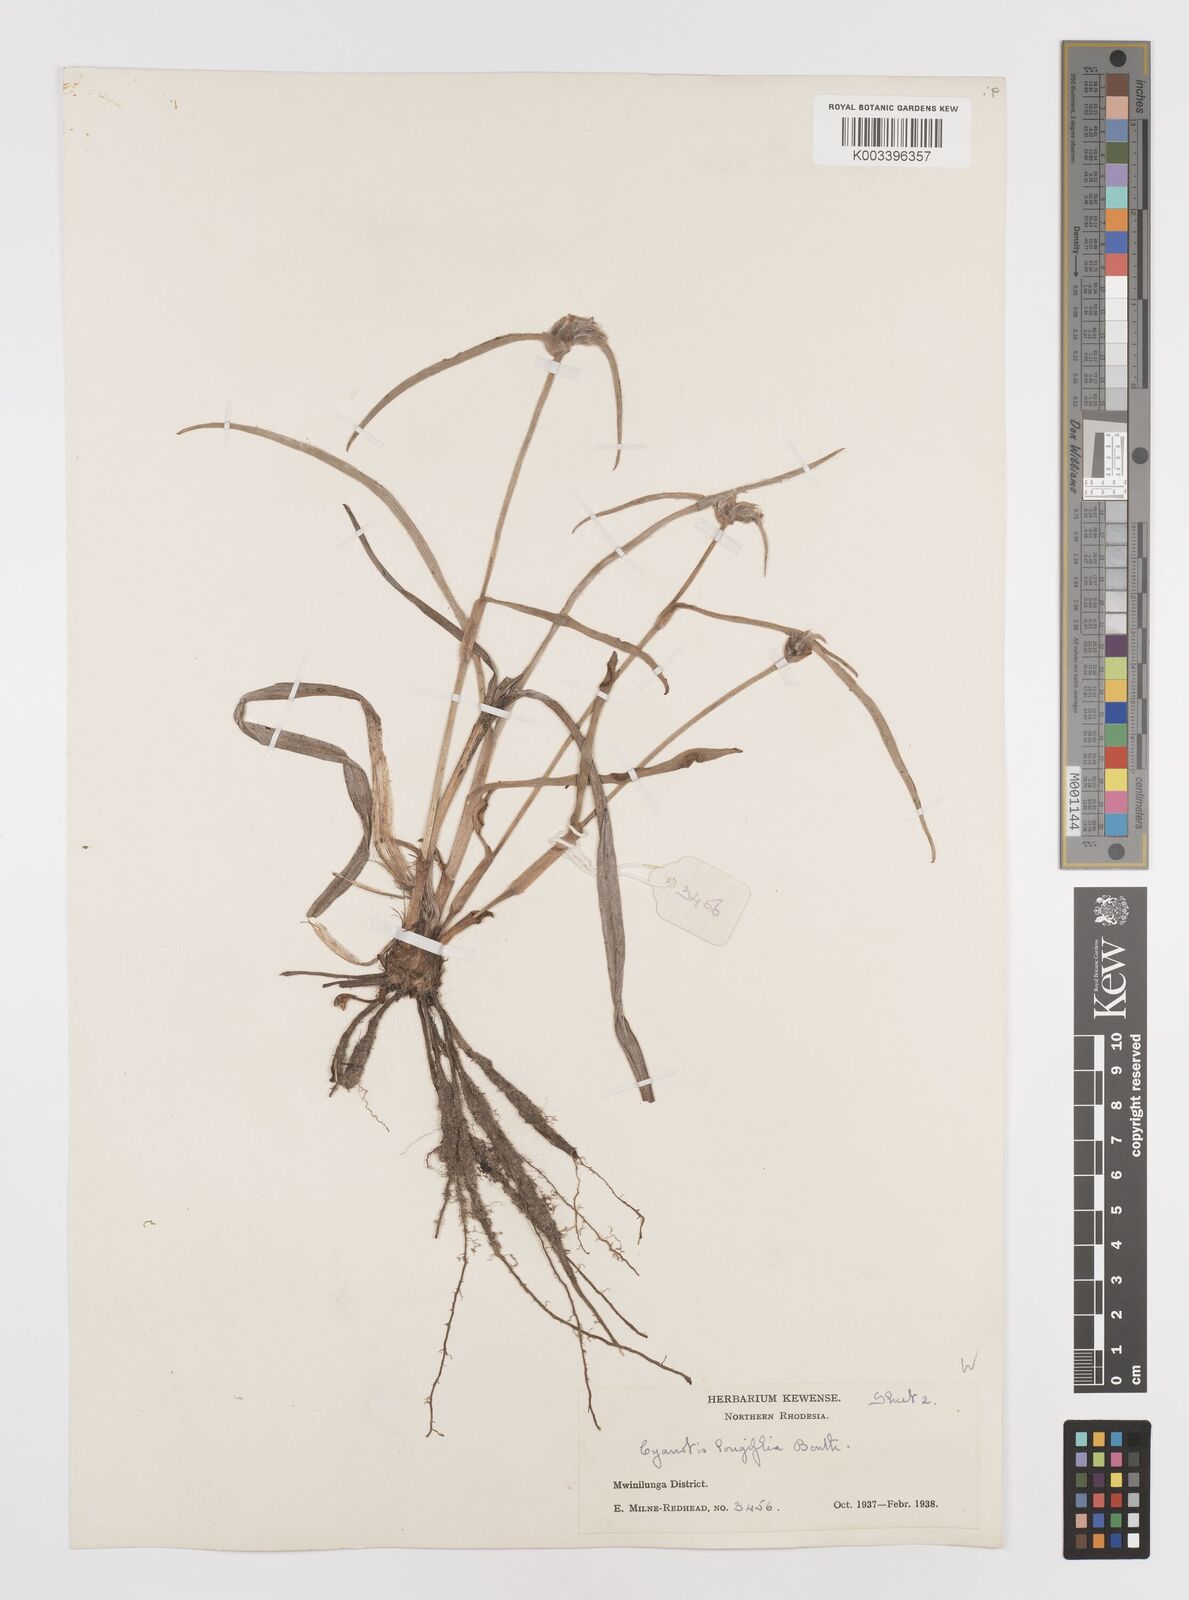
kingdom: Plantae
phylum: Tracheophyta
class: Liliopsida
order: Commelinales
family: Commelinaceae
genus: Cyanotis
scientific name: Cyanotis longifolia
